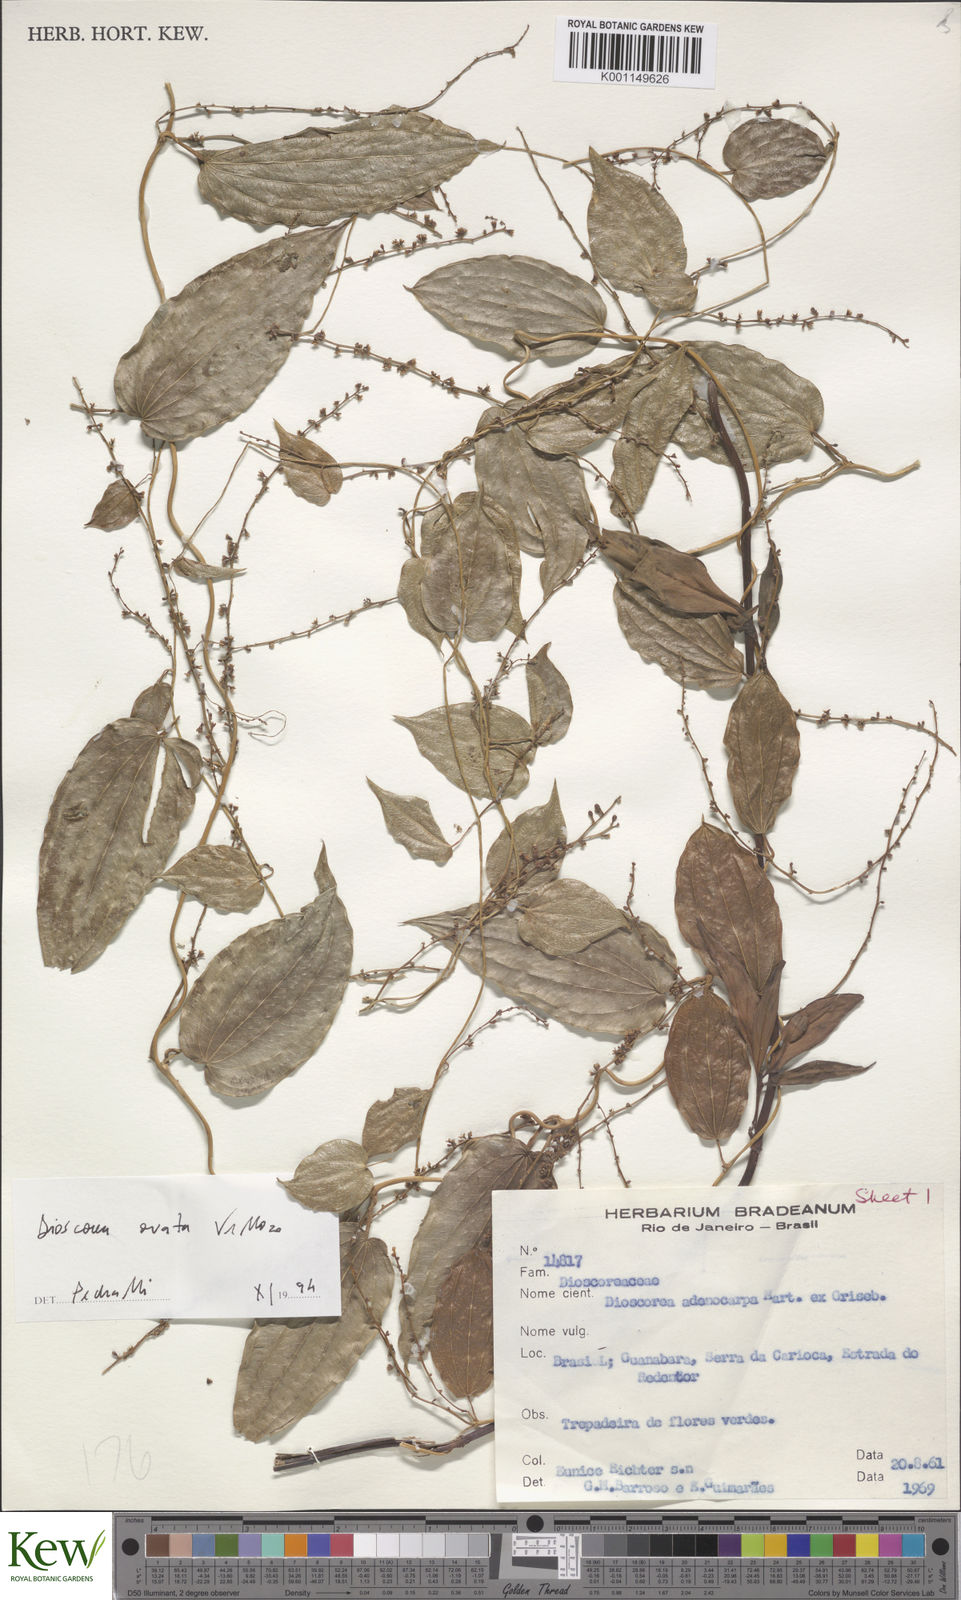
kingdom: Plantae
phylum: Tracheophyta
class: Liliopsida
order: Dioscoreales
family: Dioscoreaceae
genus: Dioscorea
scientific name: Dioscorea ovata
